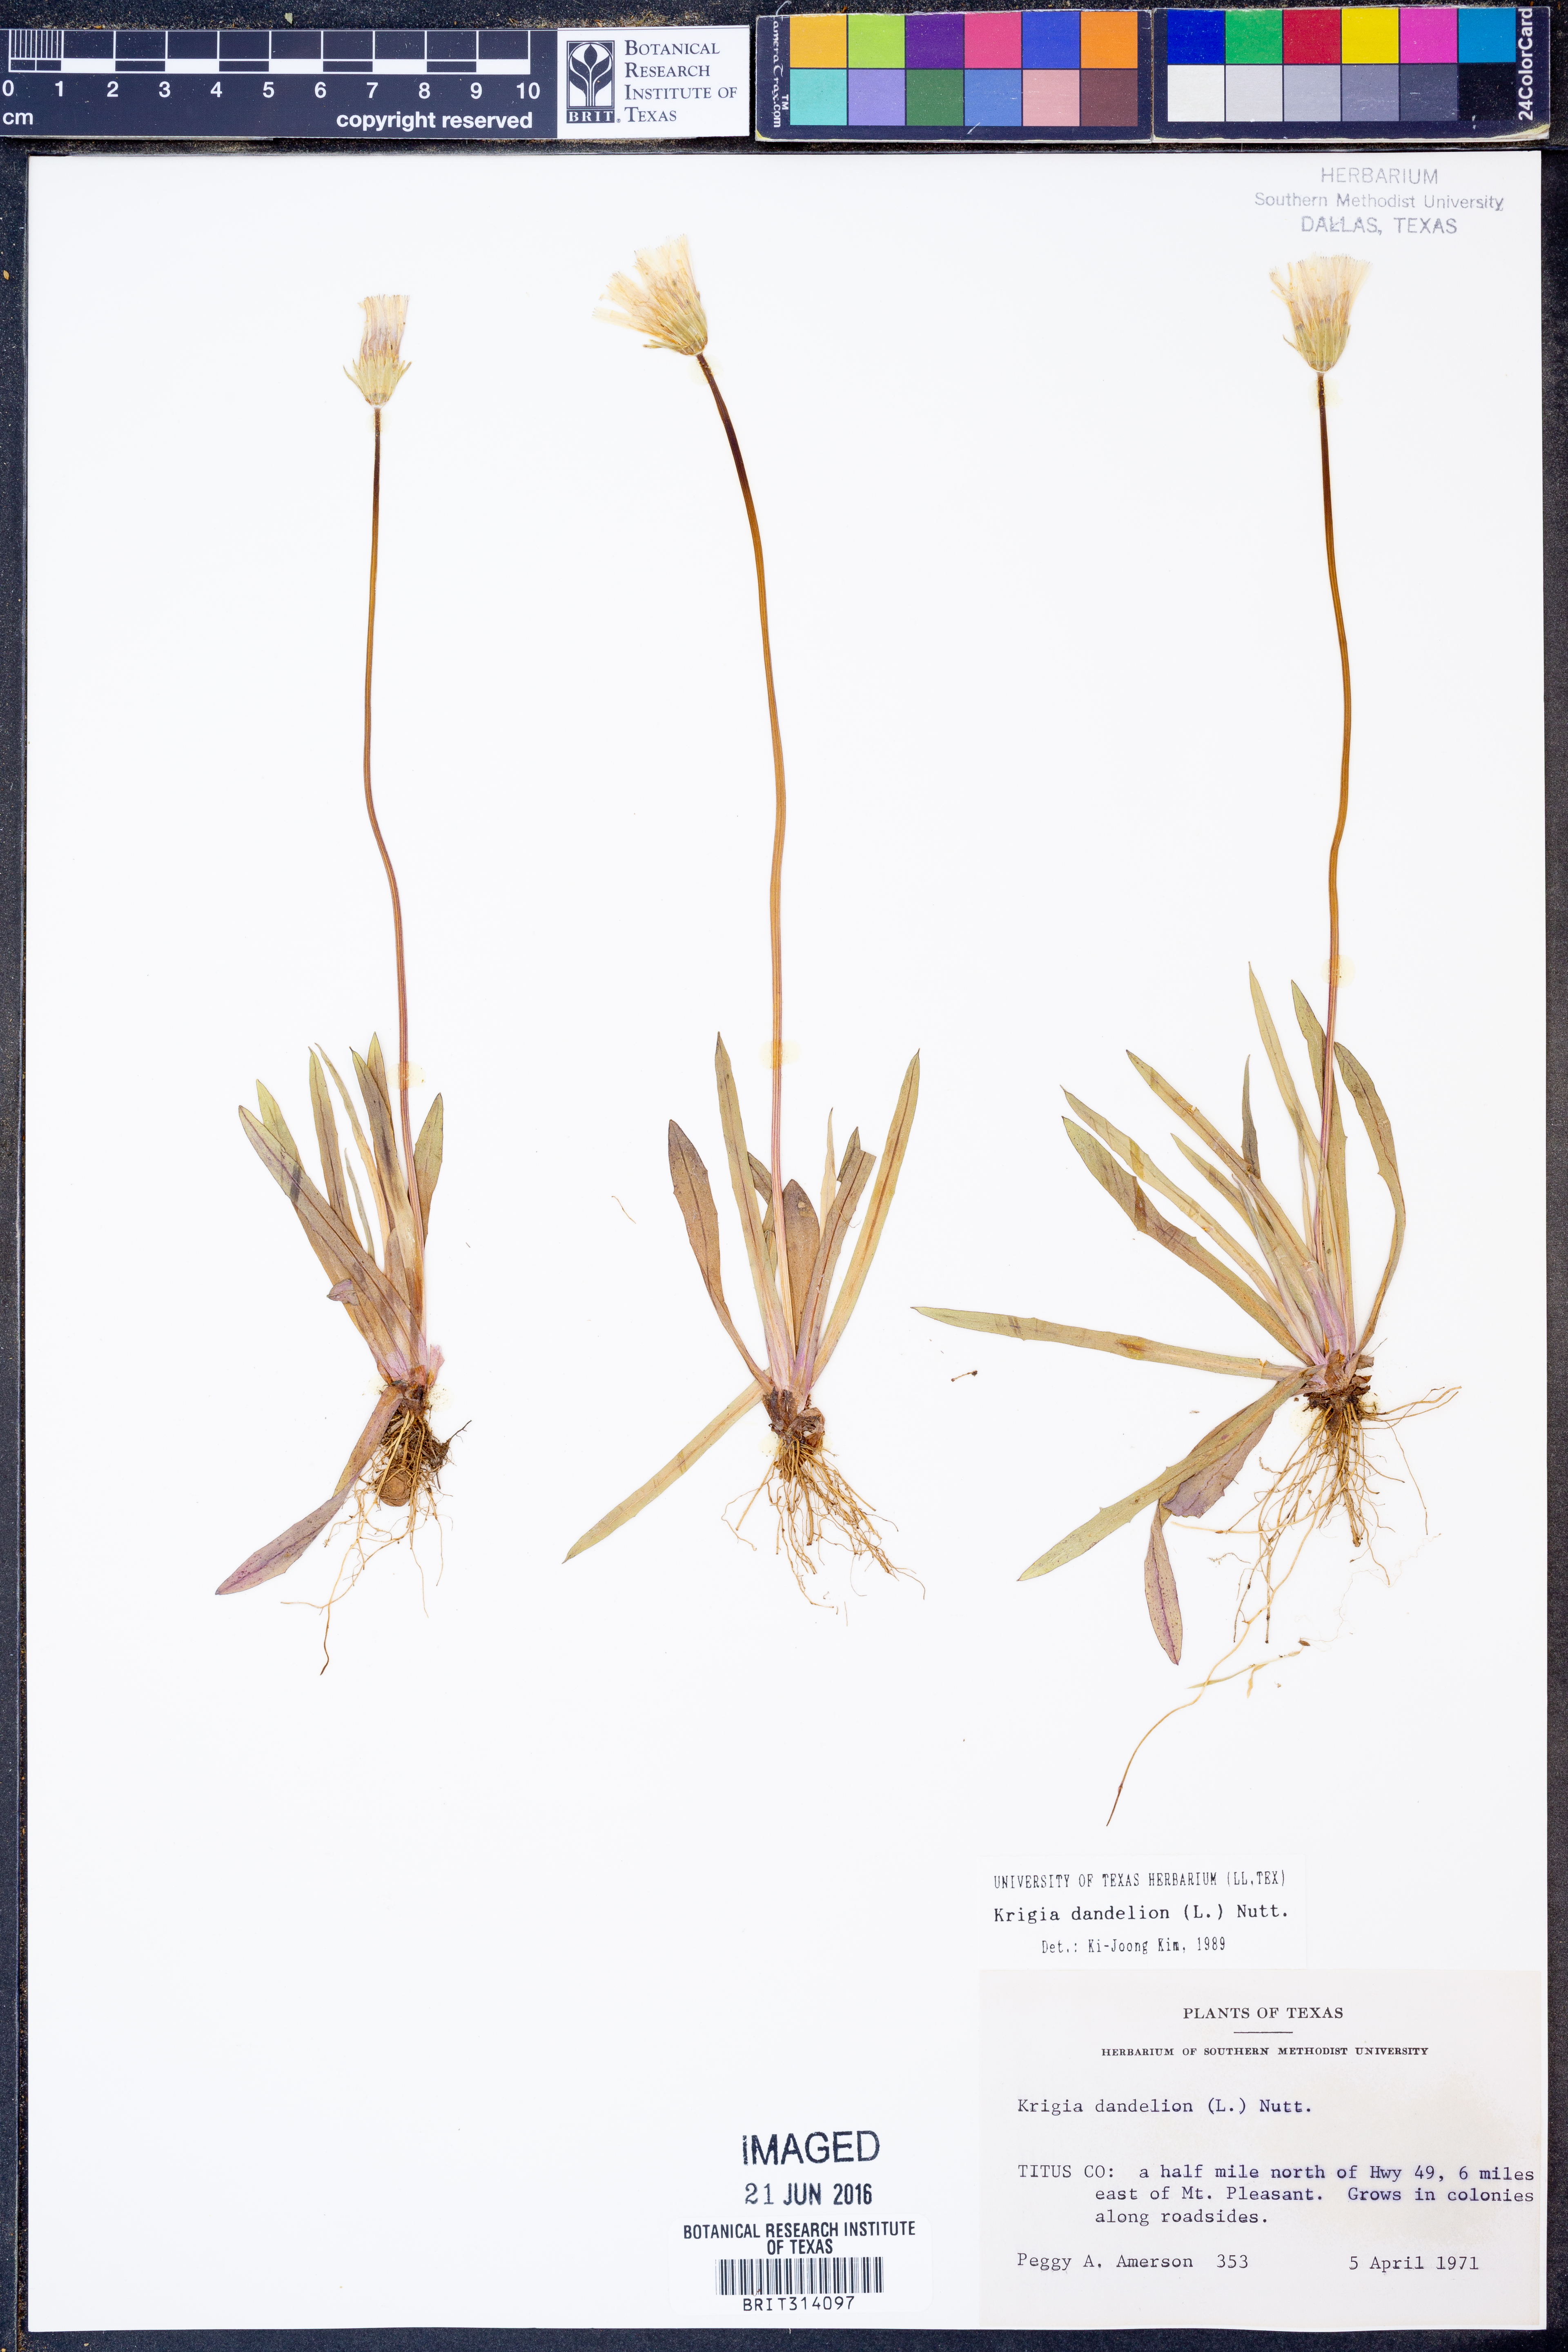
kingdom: Plantae
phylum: Tracheophyta
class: Magnoliopsida
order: Asterales
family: Asteraceae
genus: Krigia
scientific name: Krigia dandelion
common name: Colonial dwarf-dandelion
